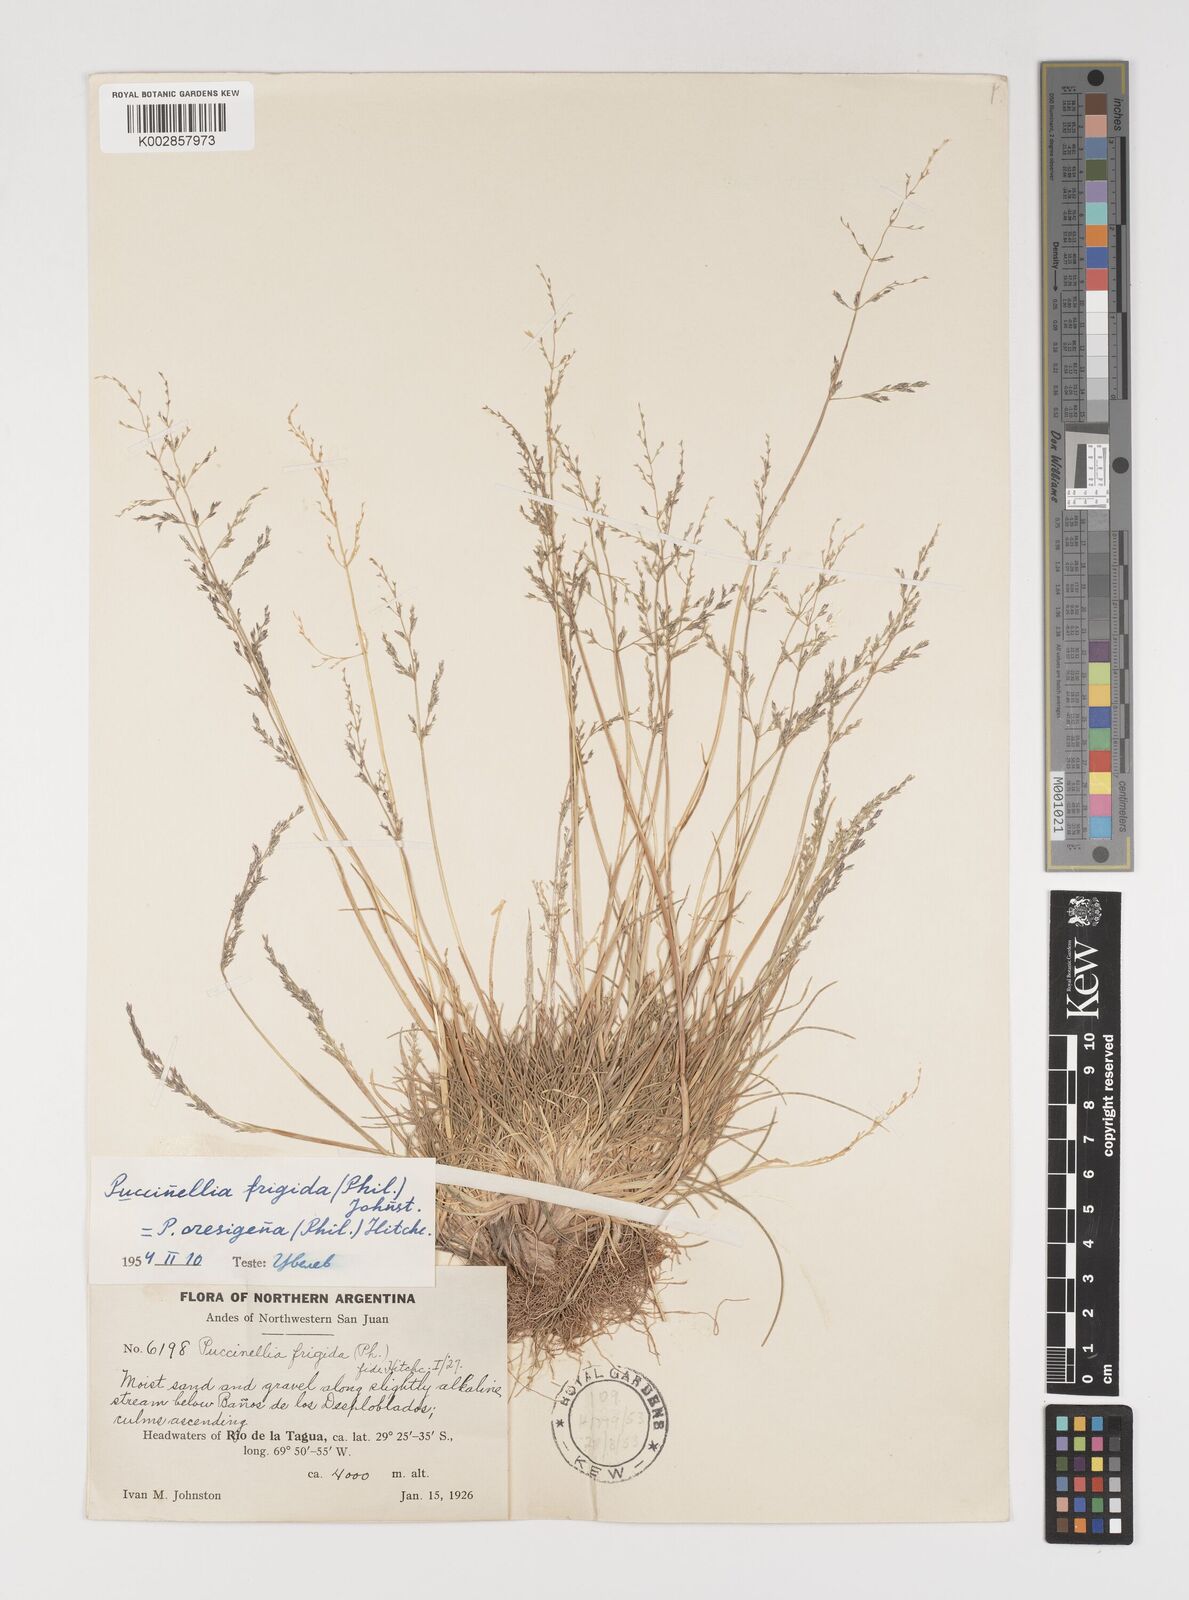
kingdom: Plantae
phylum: Tracheophyta
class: Liliopsida
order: Poales
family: Poaceae
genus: Puccinellia
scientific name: Puccinellia frigida
